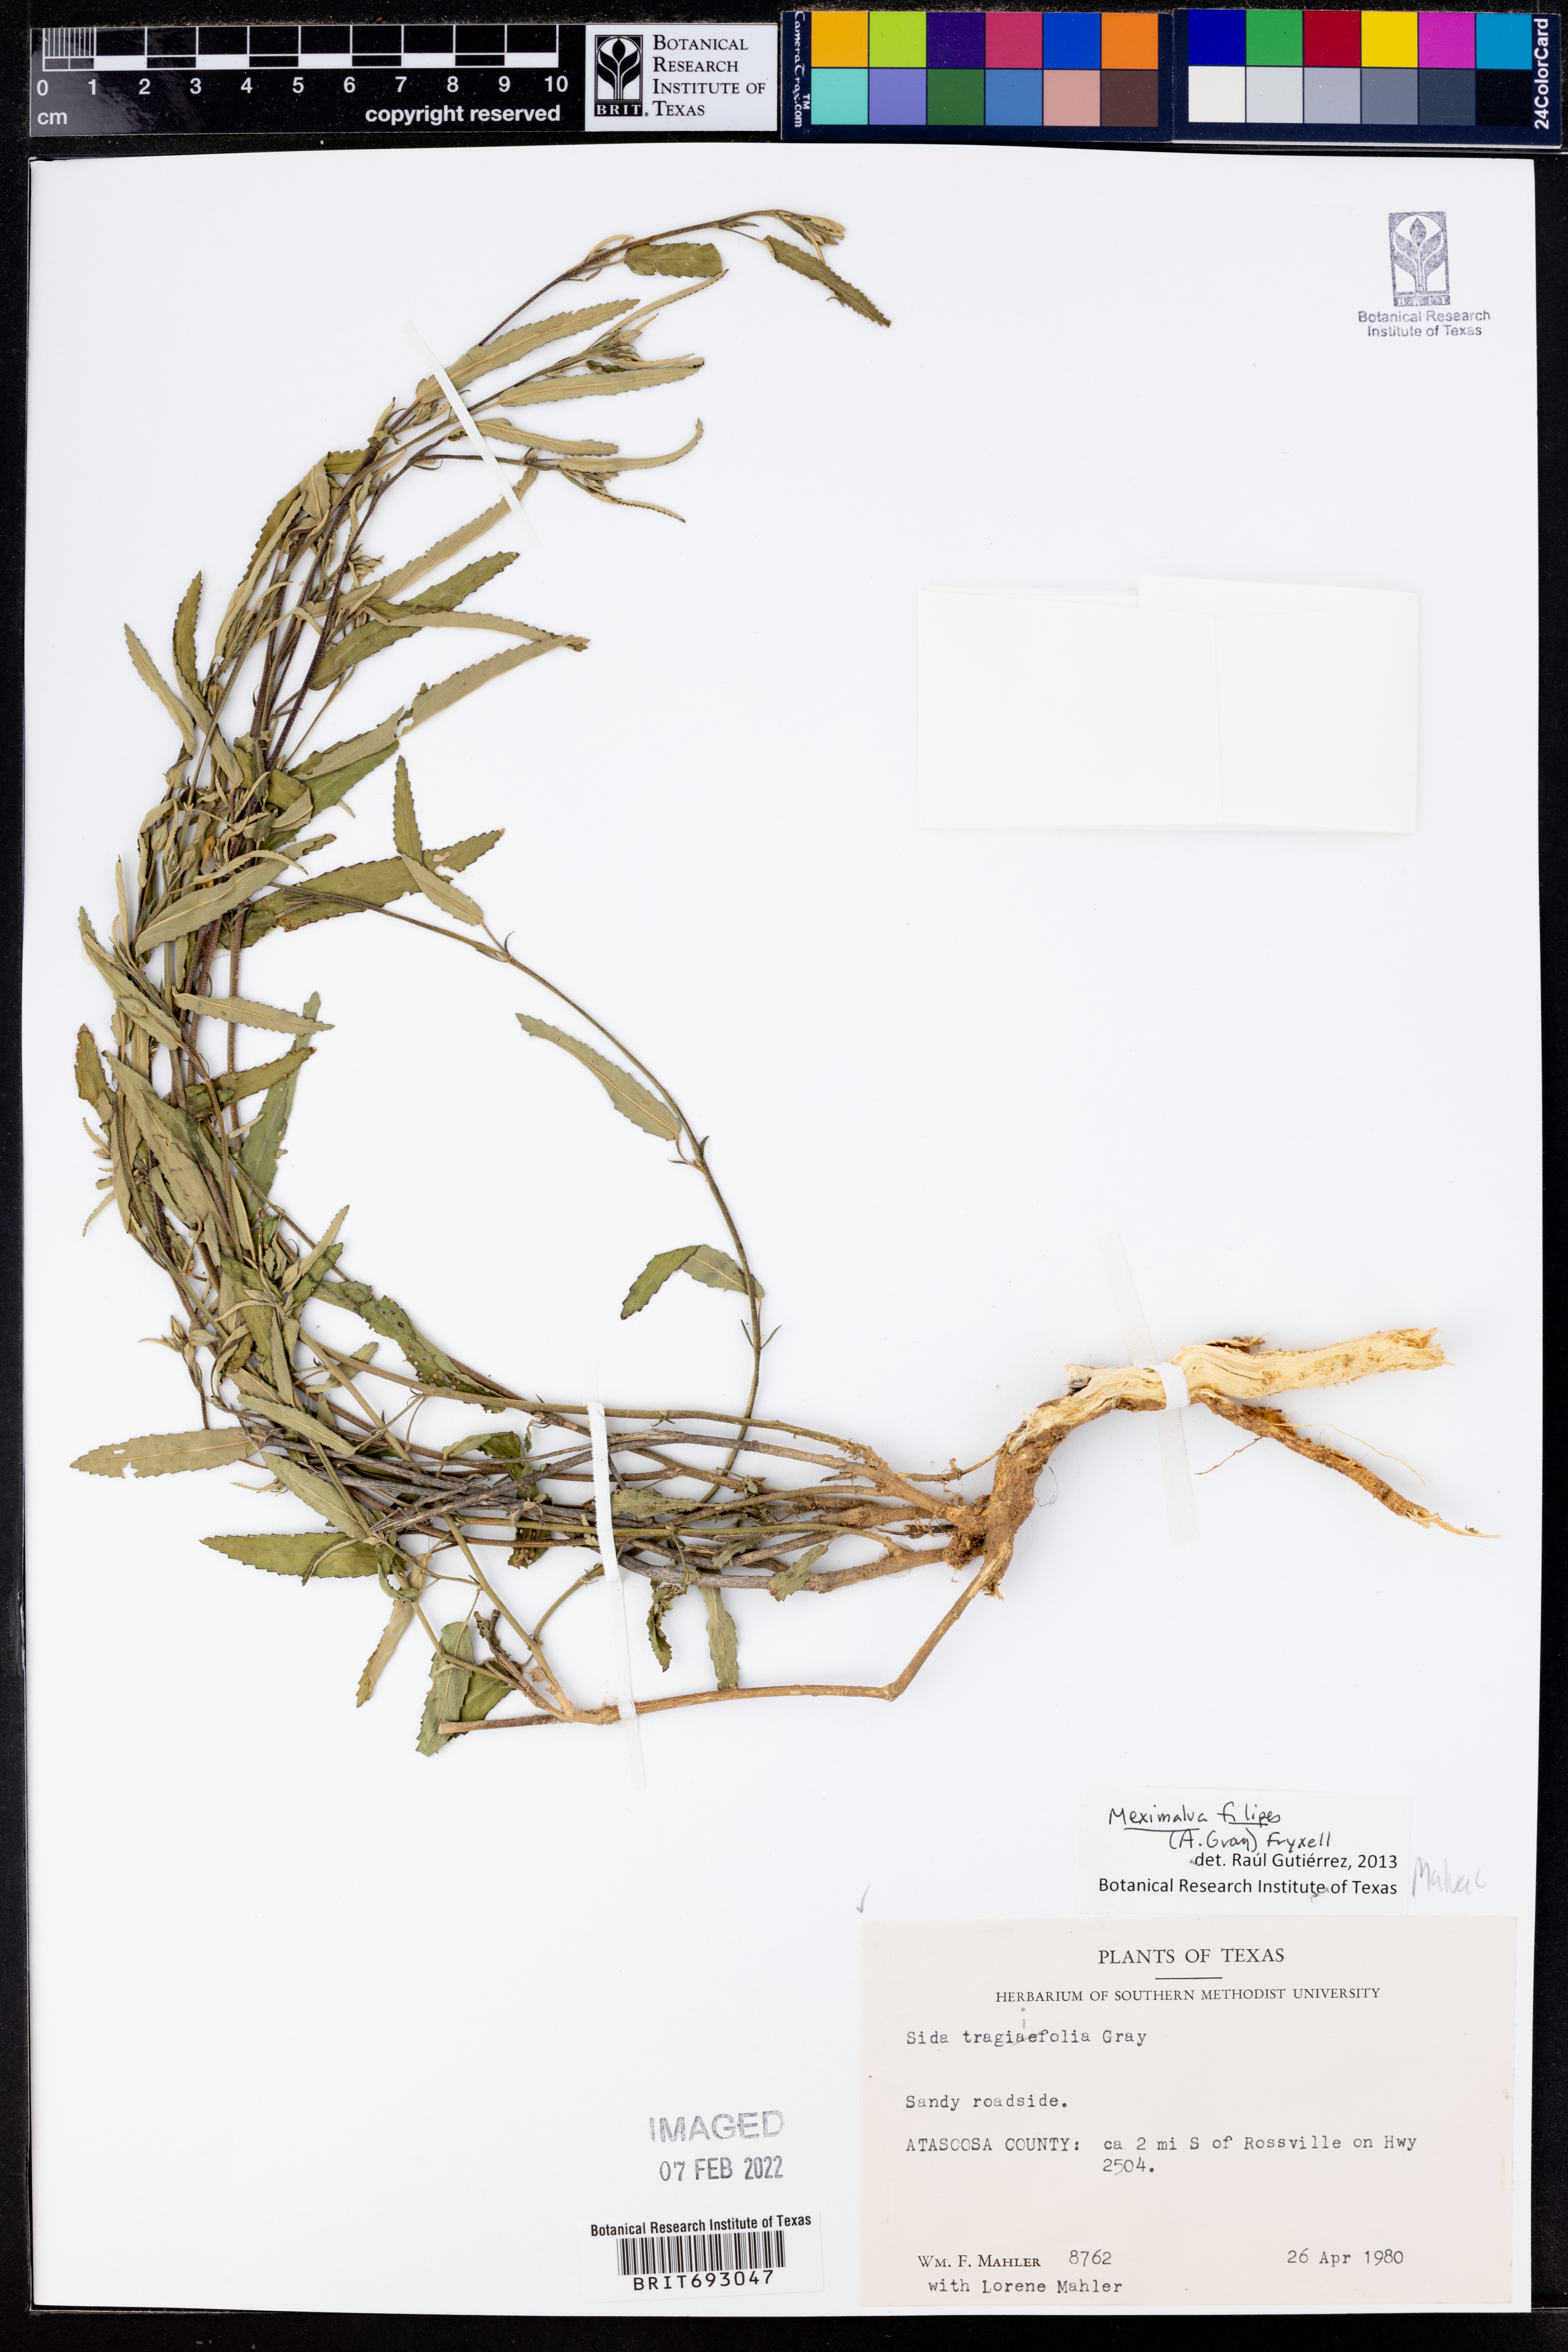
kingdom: Plantae
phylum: Tracheophyta
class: Magnoliopsida
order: Malvales
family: Malvaceae
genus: Meximalva
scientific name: Meximalva filipes
